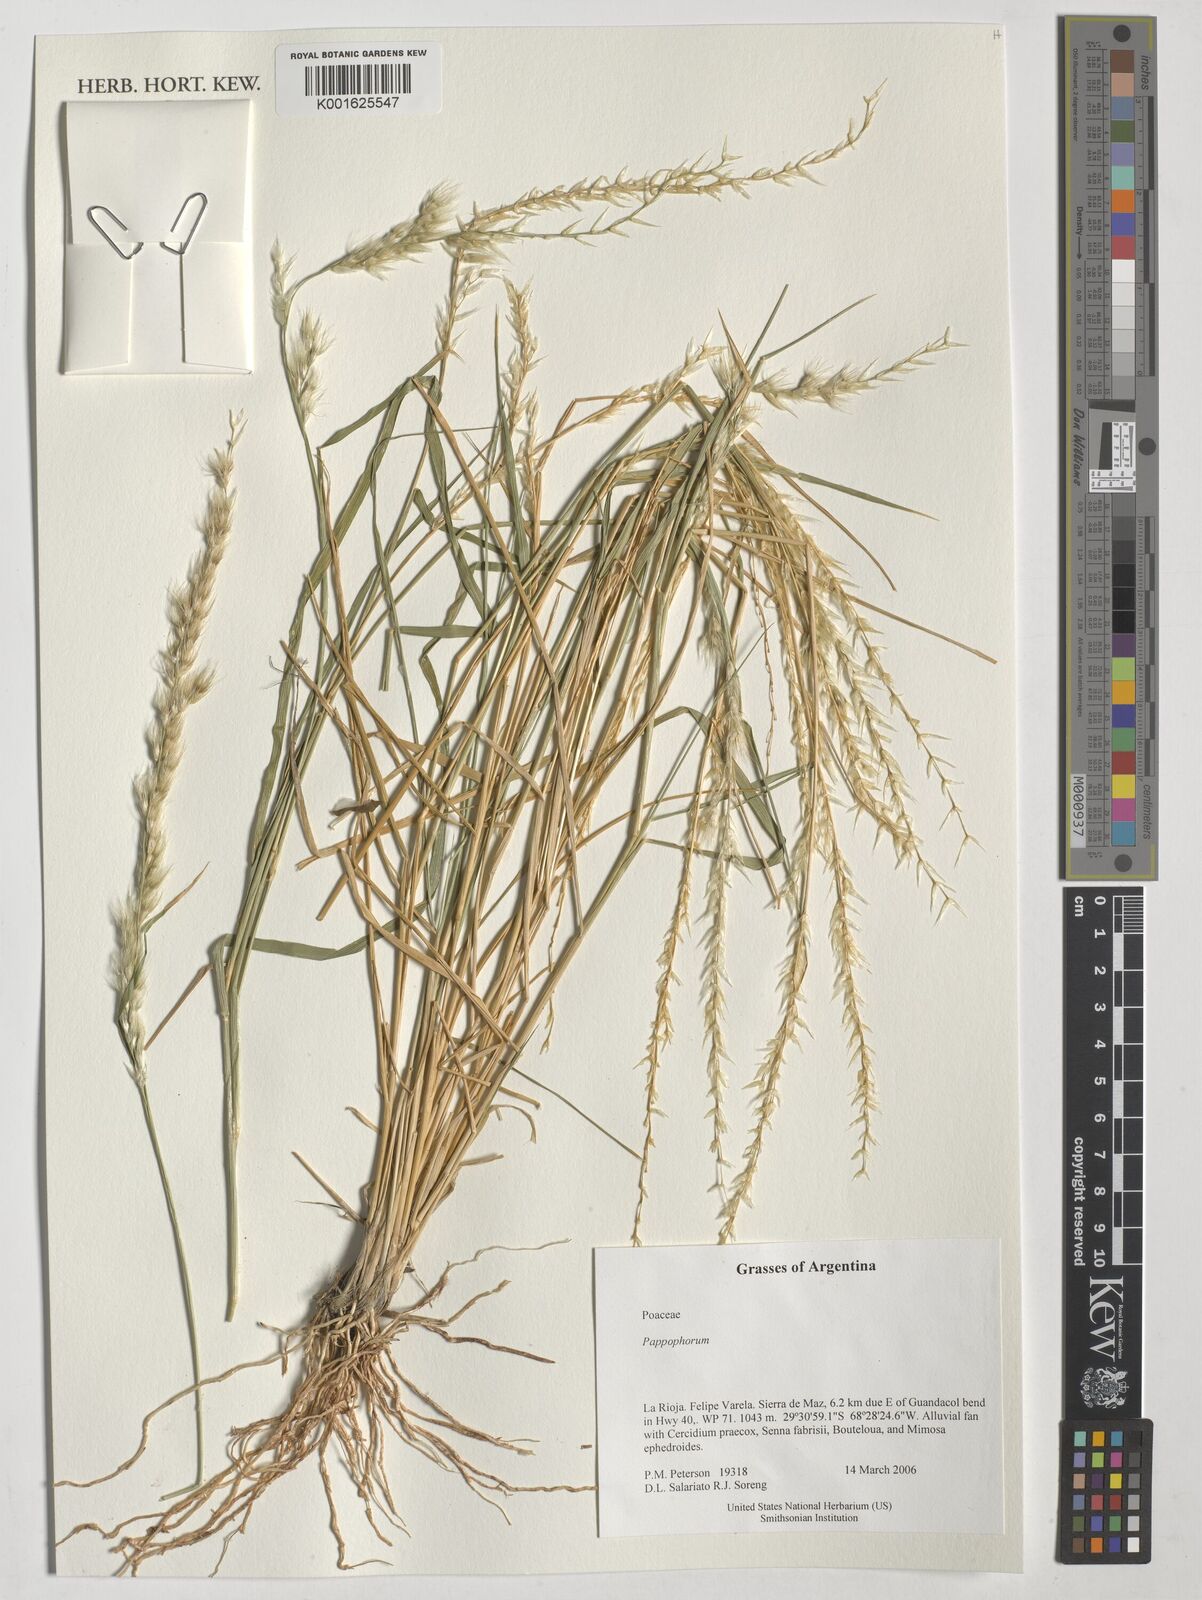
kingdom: Plantae
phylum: Tracheophyta
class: Liliopsida
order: Poales
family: Poaceae
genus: Pappophorum
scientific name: Pappophorum
